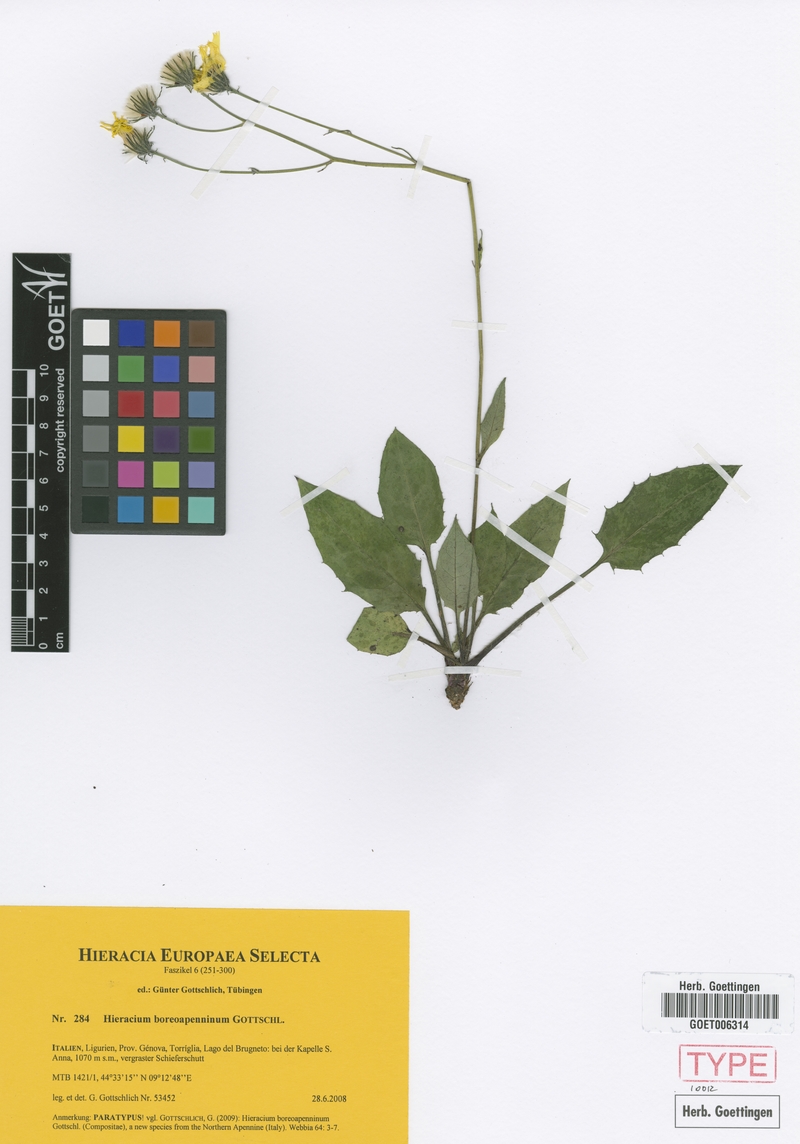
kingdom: Plantae
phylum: Tracheophyta
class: Magnoliopsida
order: Asterales
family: Asteraceae
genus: Hieracium
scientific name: Hieracium boreoapenninum
